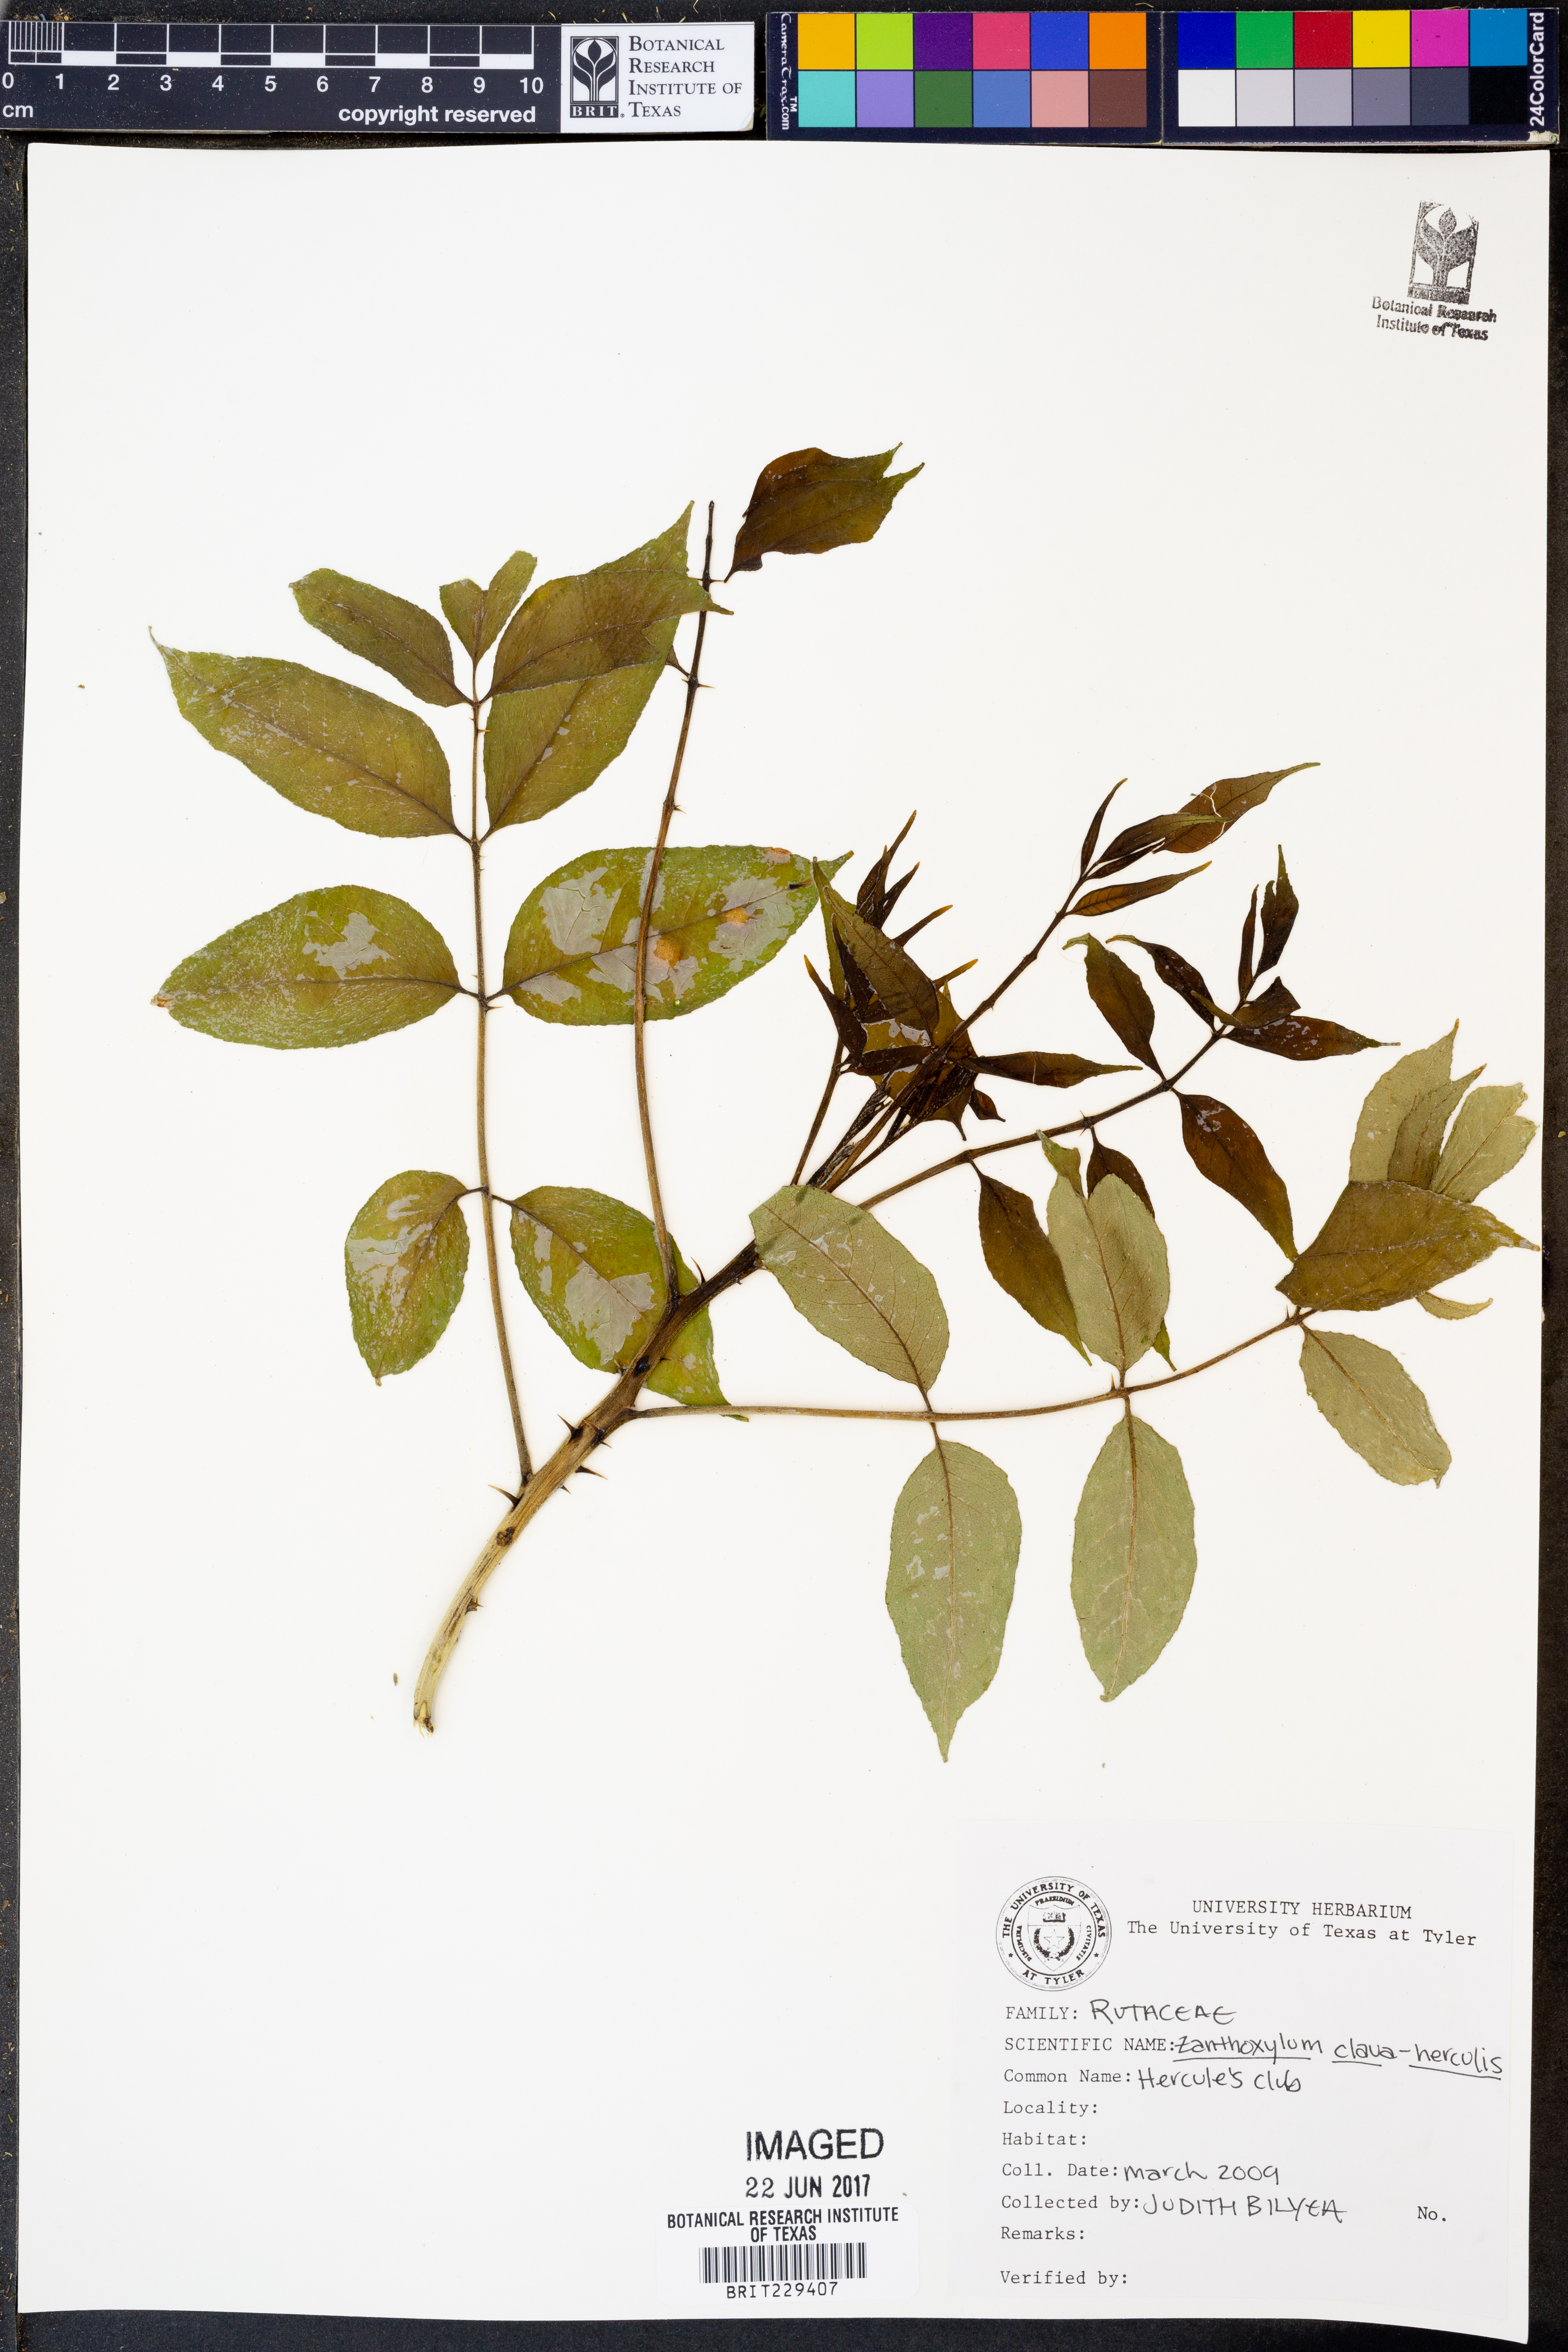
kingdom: Plantae
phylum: Tracheophyta
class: Magnoliopsida
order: Sapindales
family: Rutaceae
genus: Zanthoxylum
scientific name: Zanthoxylum avicennae
